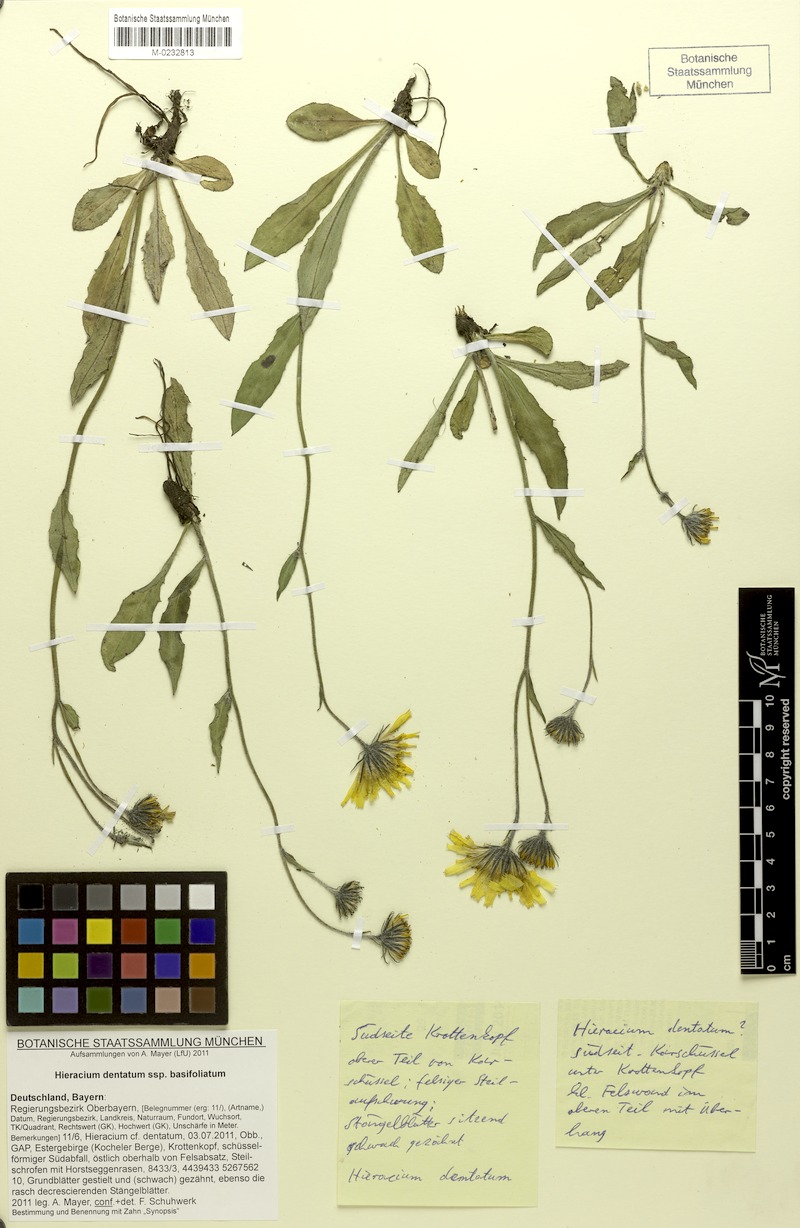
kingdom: Plantae
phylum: Tracheophyta
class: Magnoliopsida
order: Asterales
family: Asteraceae
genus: Hieracium
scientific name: Hieracium dentatum
